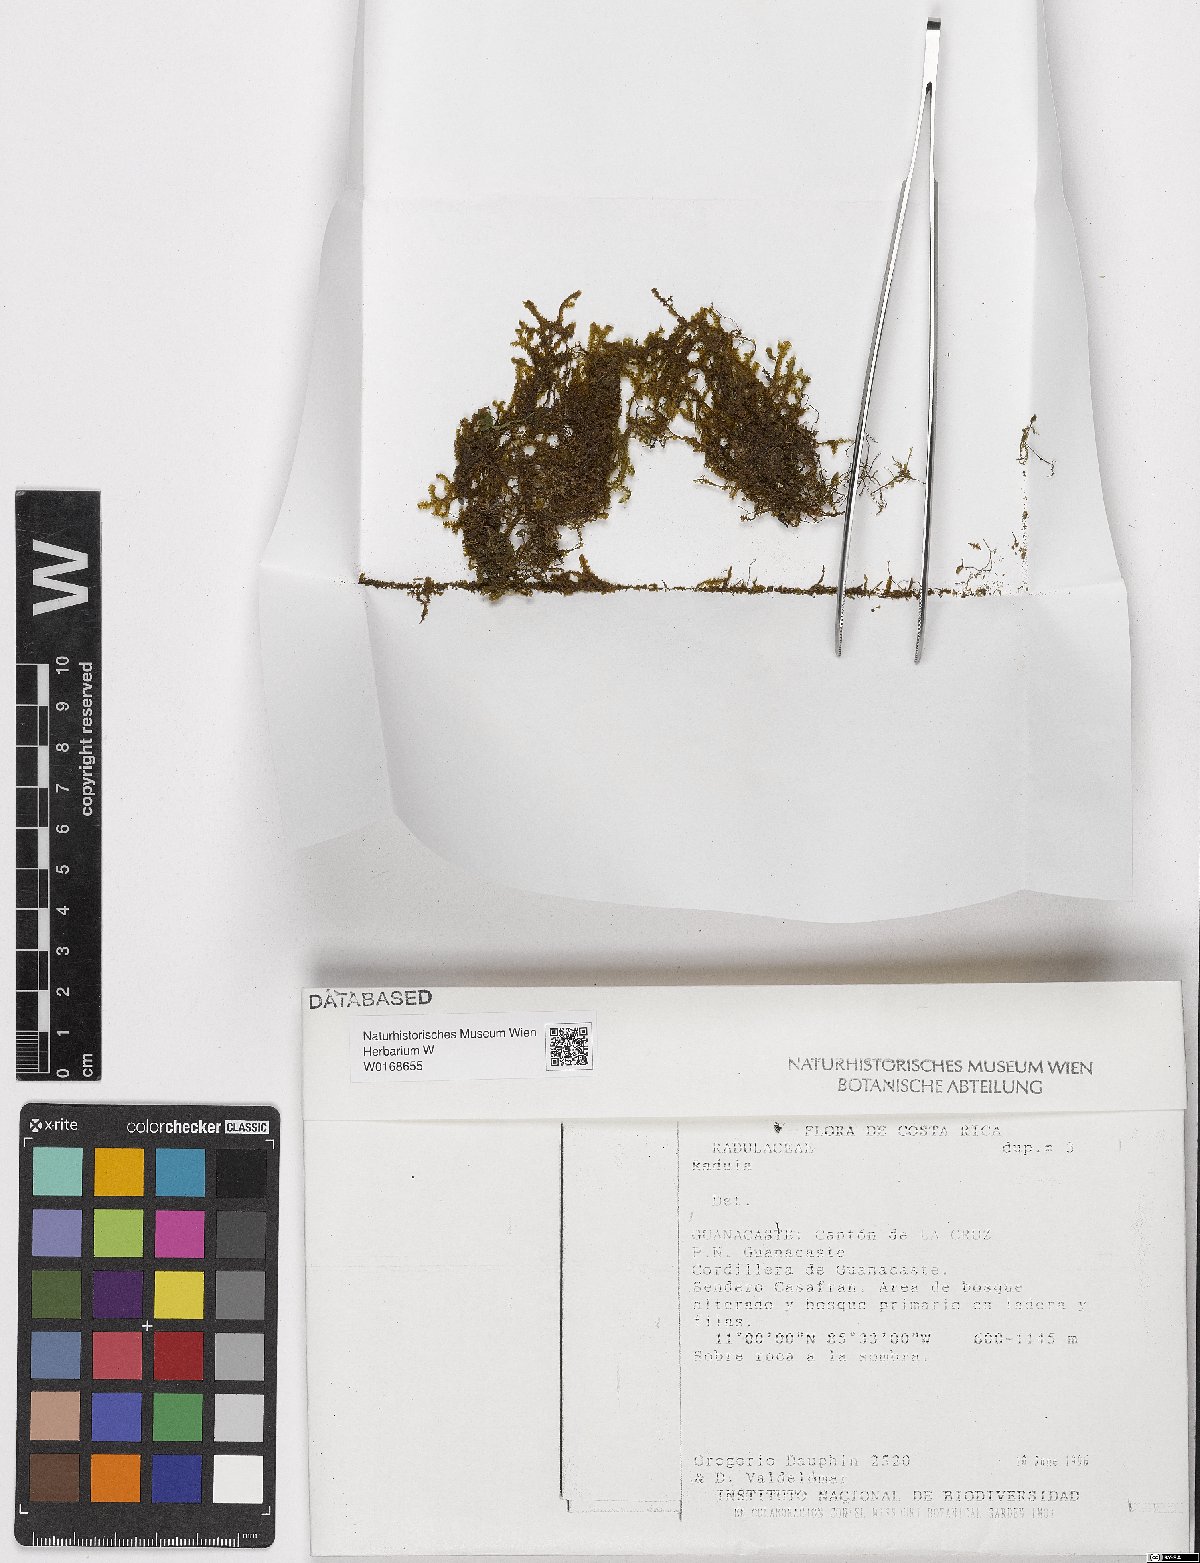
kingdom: Plantae
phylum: Marchantiophyta
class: Jungermanniopsida
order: Porellales
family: Radulaceae
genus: Radula
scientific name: Radula
